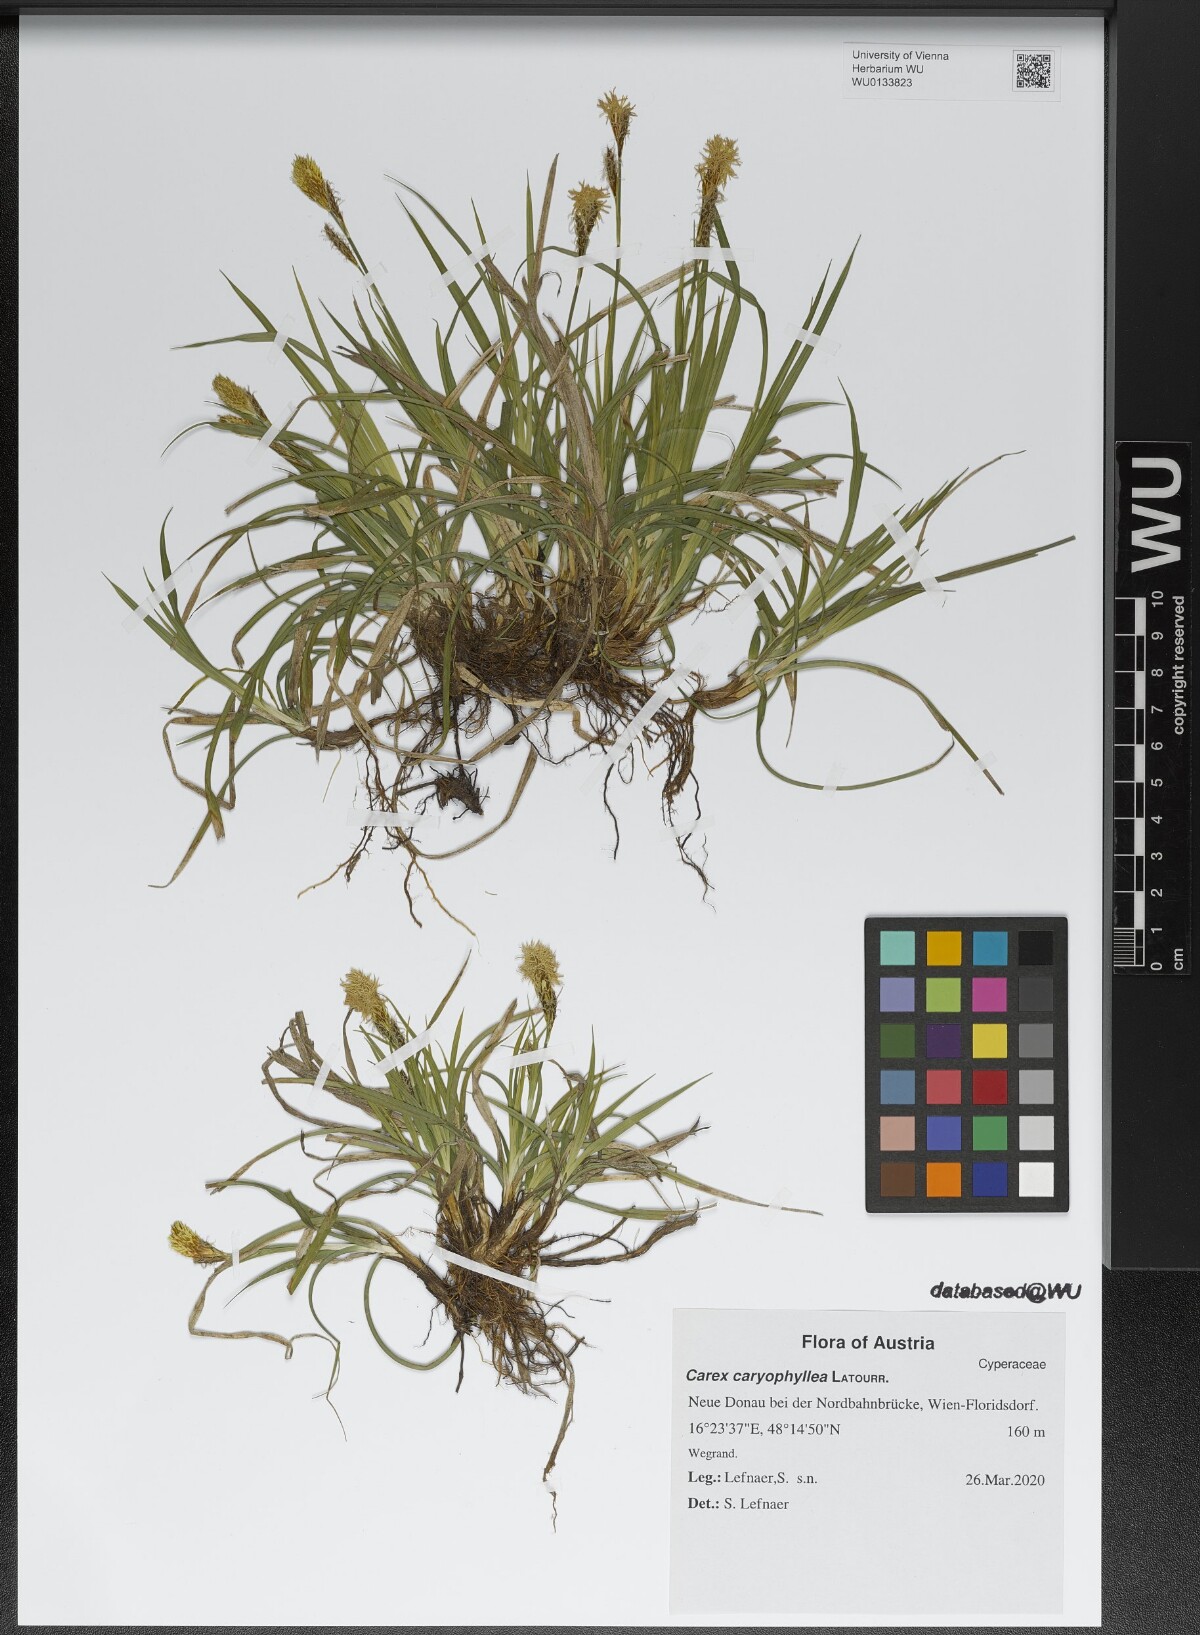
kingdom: Plantae
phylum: Tracheophyta
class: Liliopsida
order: Poales
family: Cyperaceae
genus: Carex
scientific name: Carex caryophyllea
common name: Spring sedge
